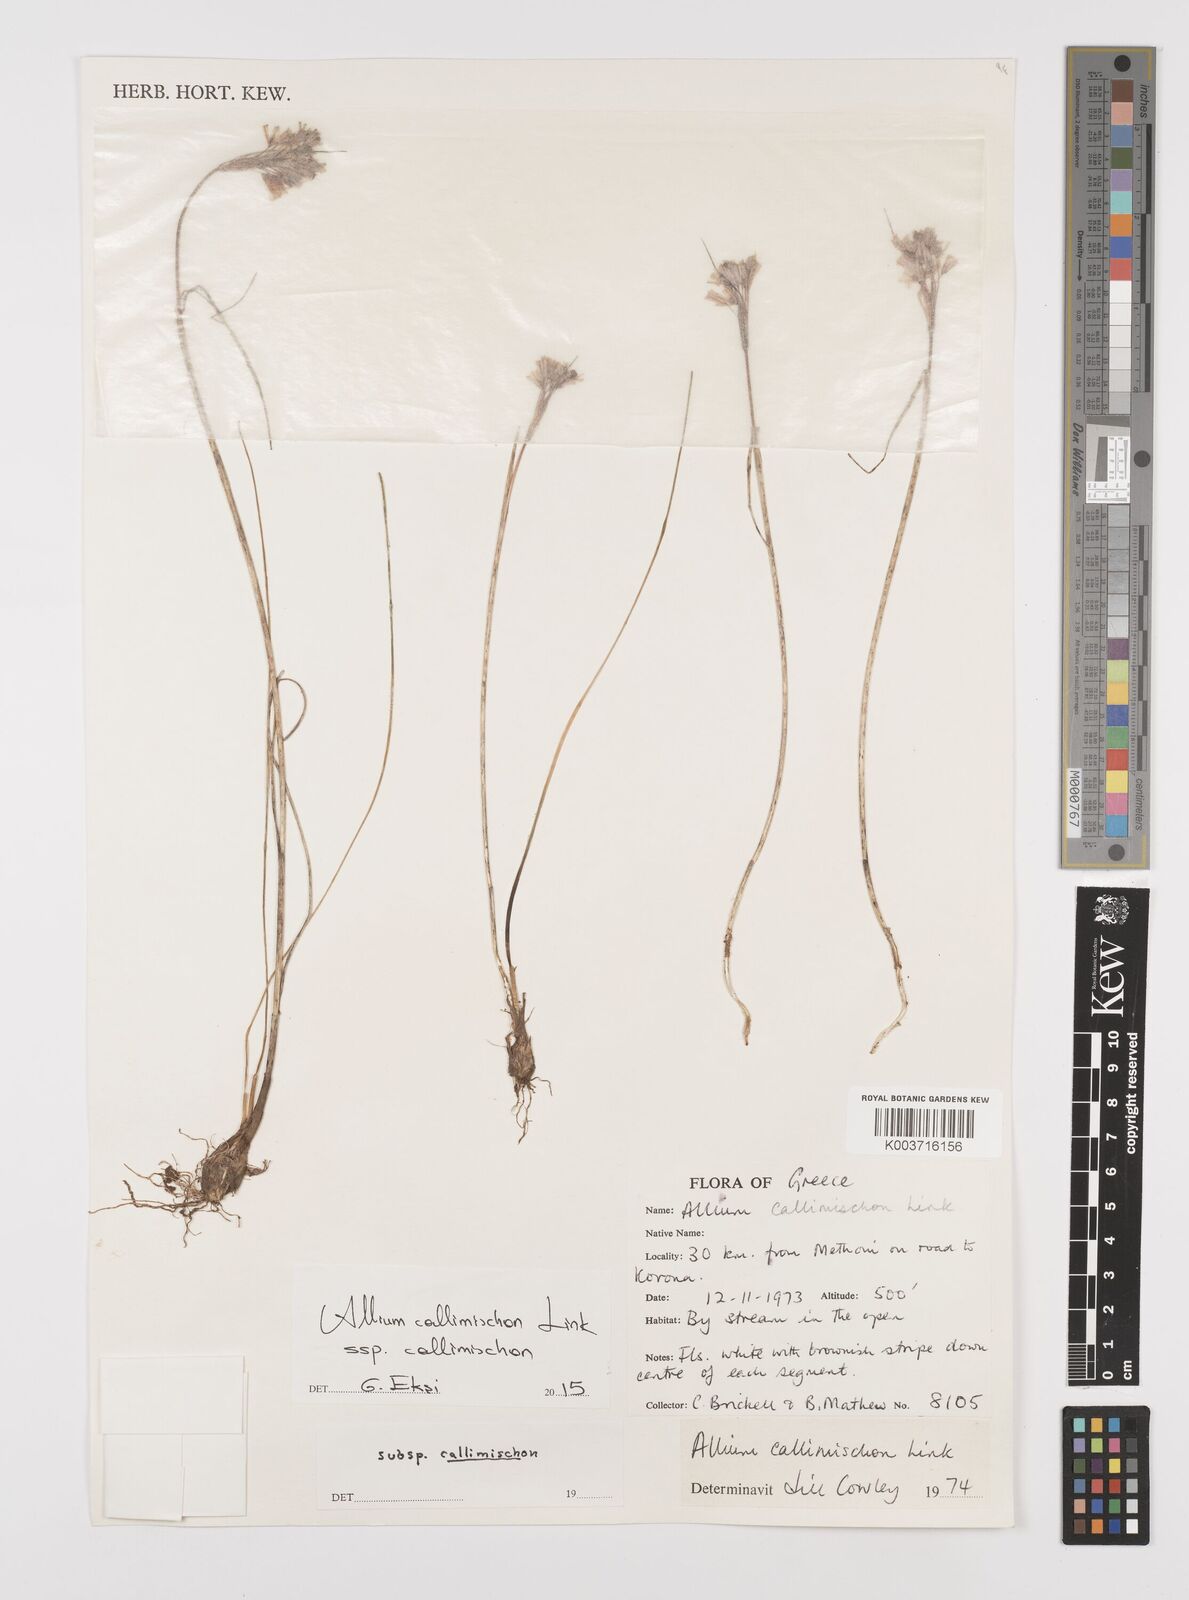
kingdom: Plantae
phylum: Tracheophyta
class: Liliopsida
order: Asparagales
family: Amaryllidaceae
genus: Allium
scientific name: Allium callimischon
